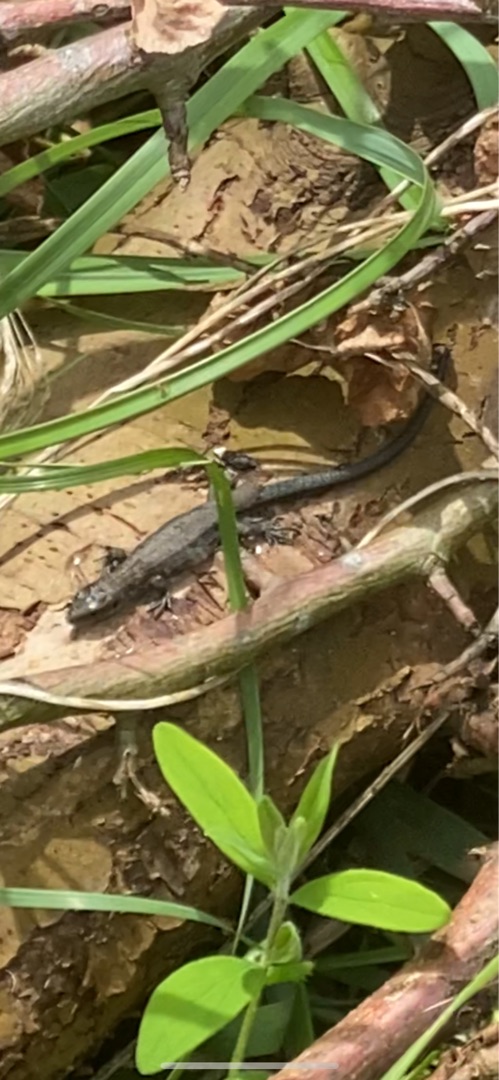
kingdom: Animalia
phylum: Chordata
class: Squamata
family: Lacertidae
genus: Zootoca
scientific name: Zootoca vivipara
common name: Skovfirben
